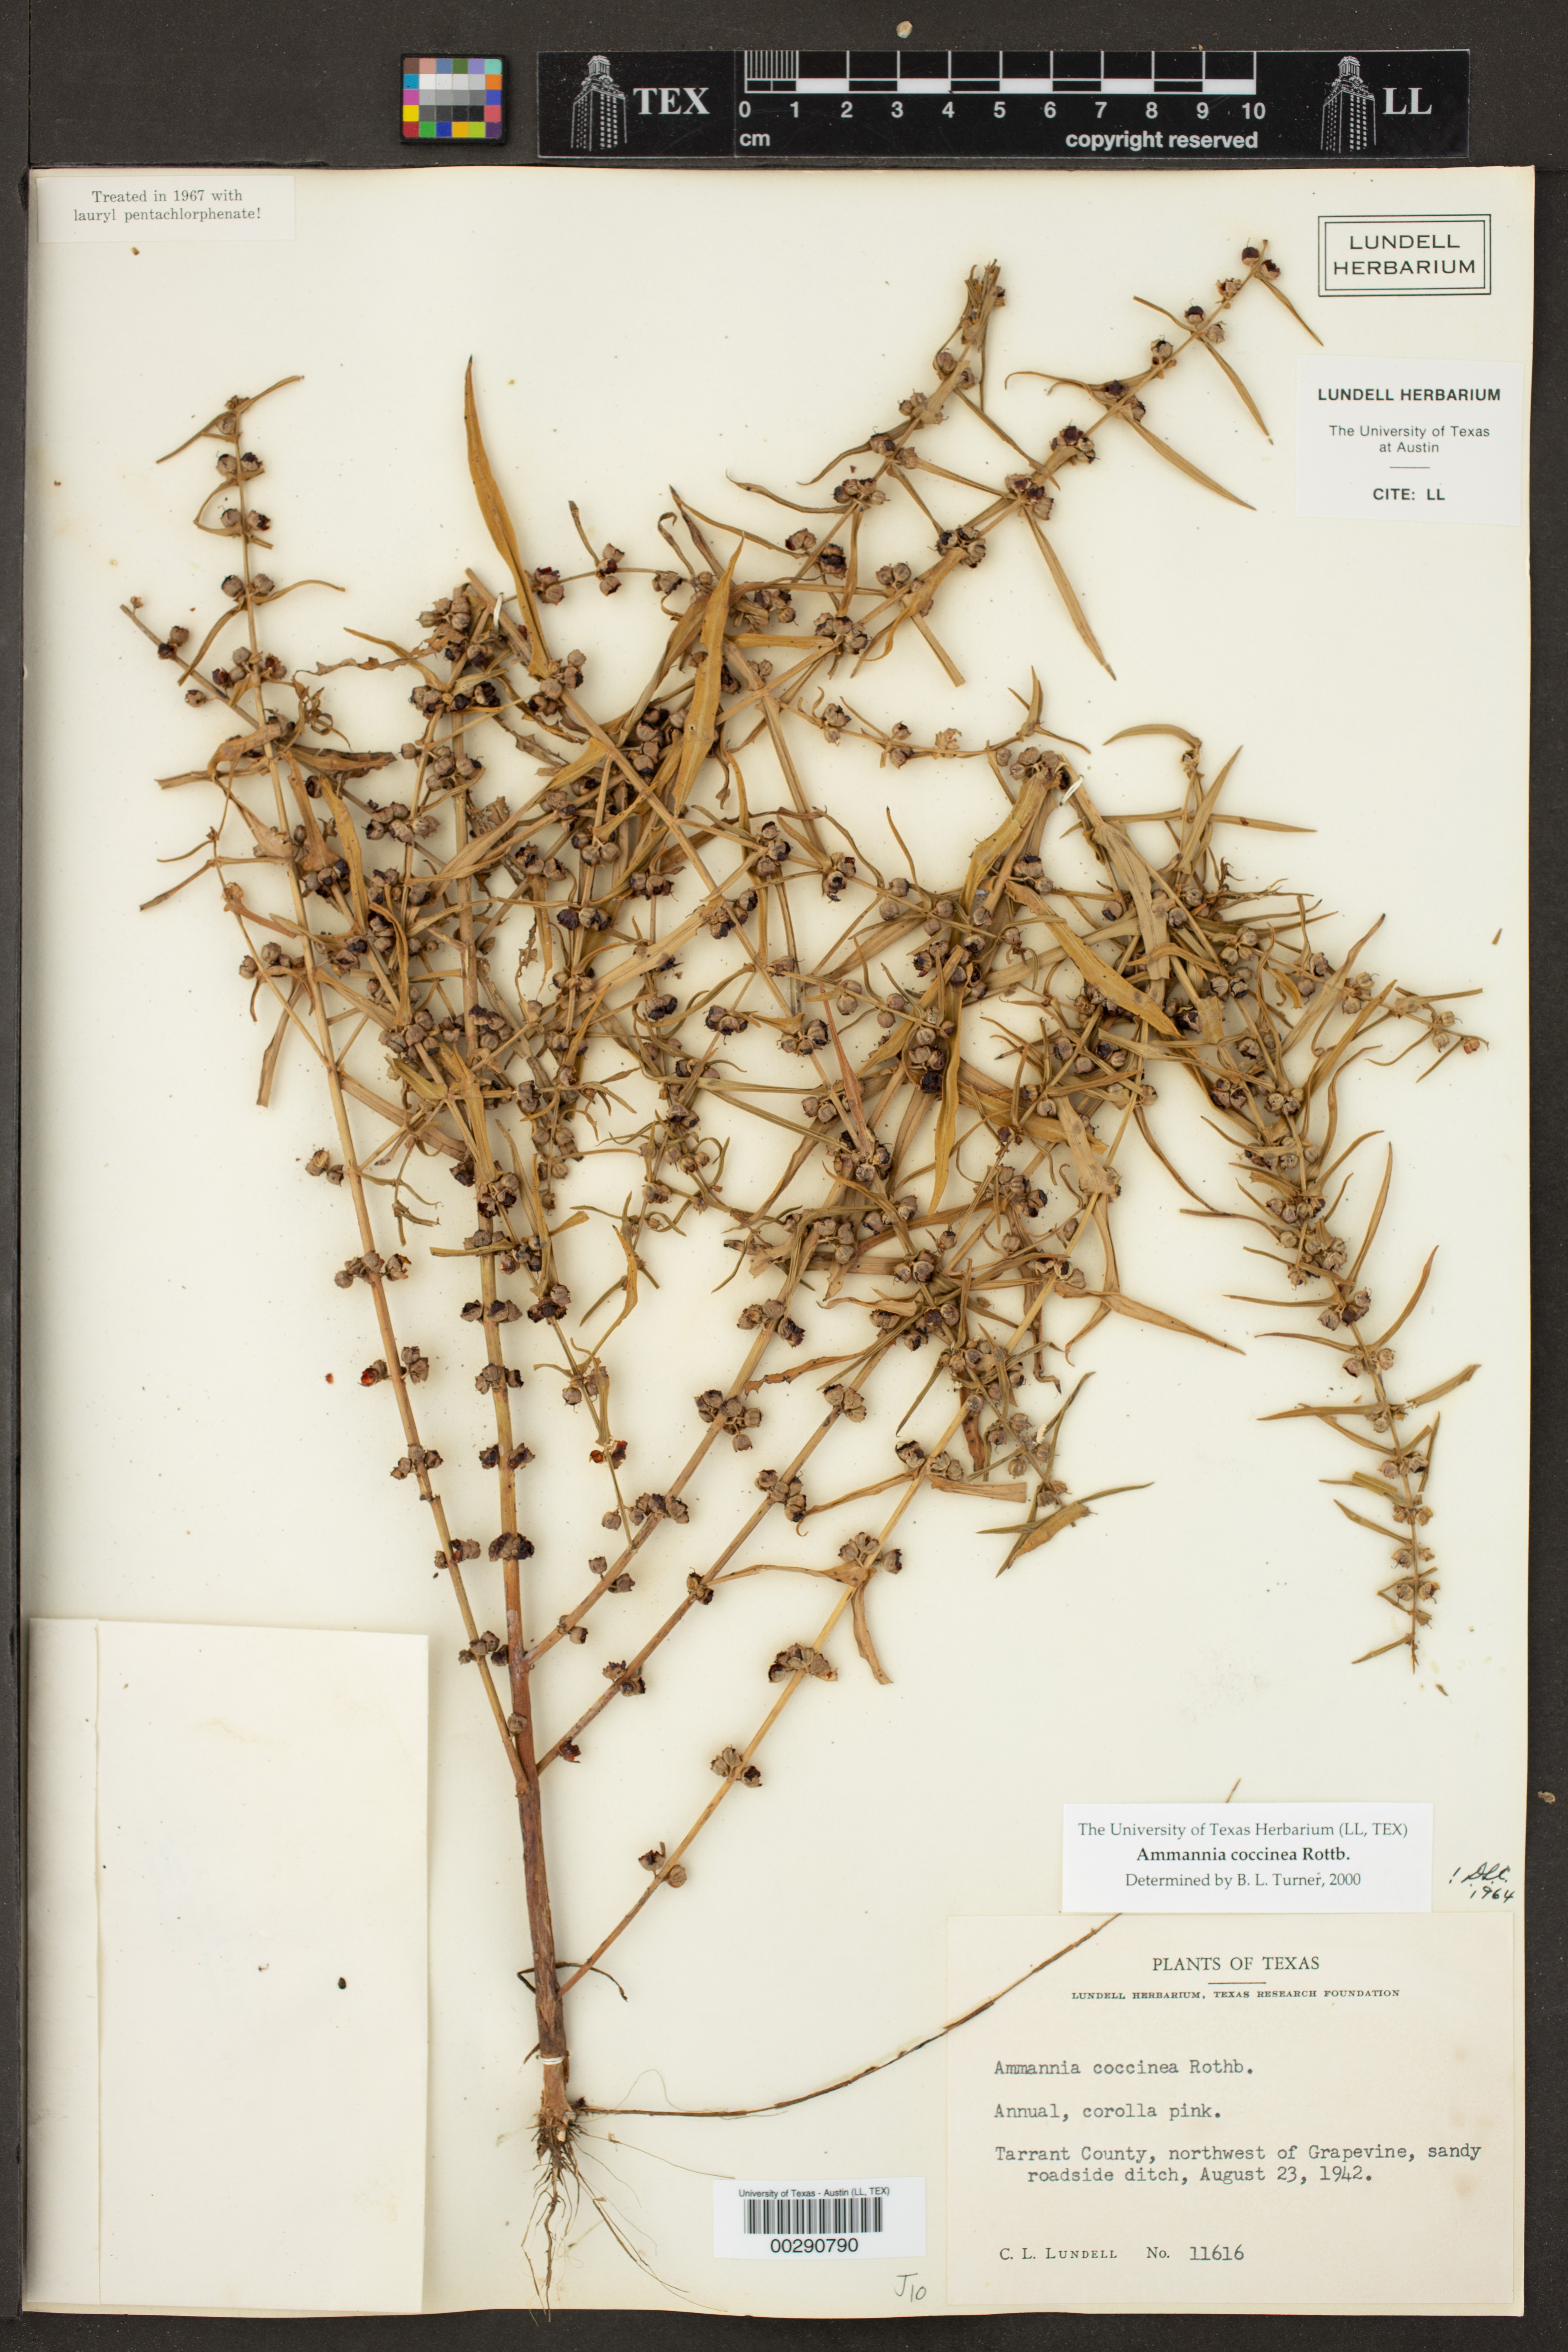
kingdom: Plantae
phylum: Tracheophyta
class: Magnoliopsida
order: Myrtales
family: Lythraceae
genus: Ammannia
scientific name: Ammannia coccinea
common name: Valley redstem
